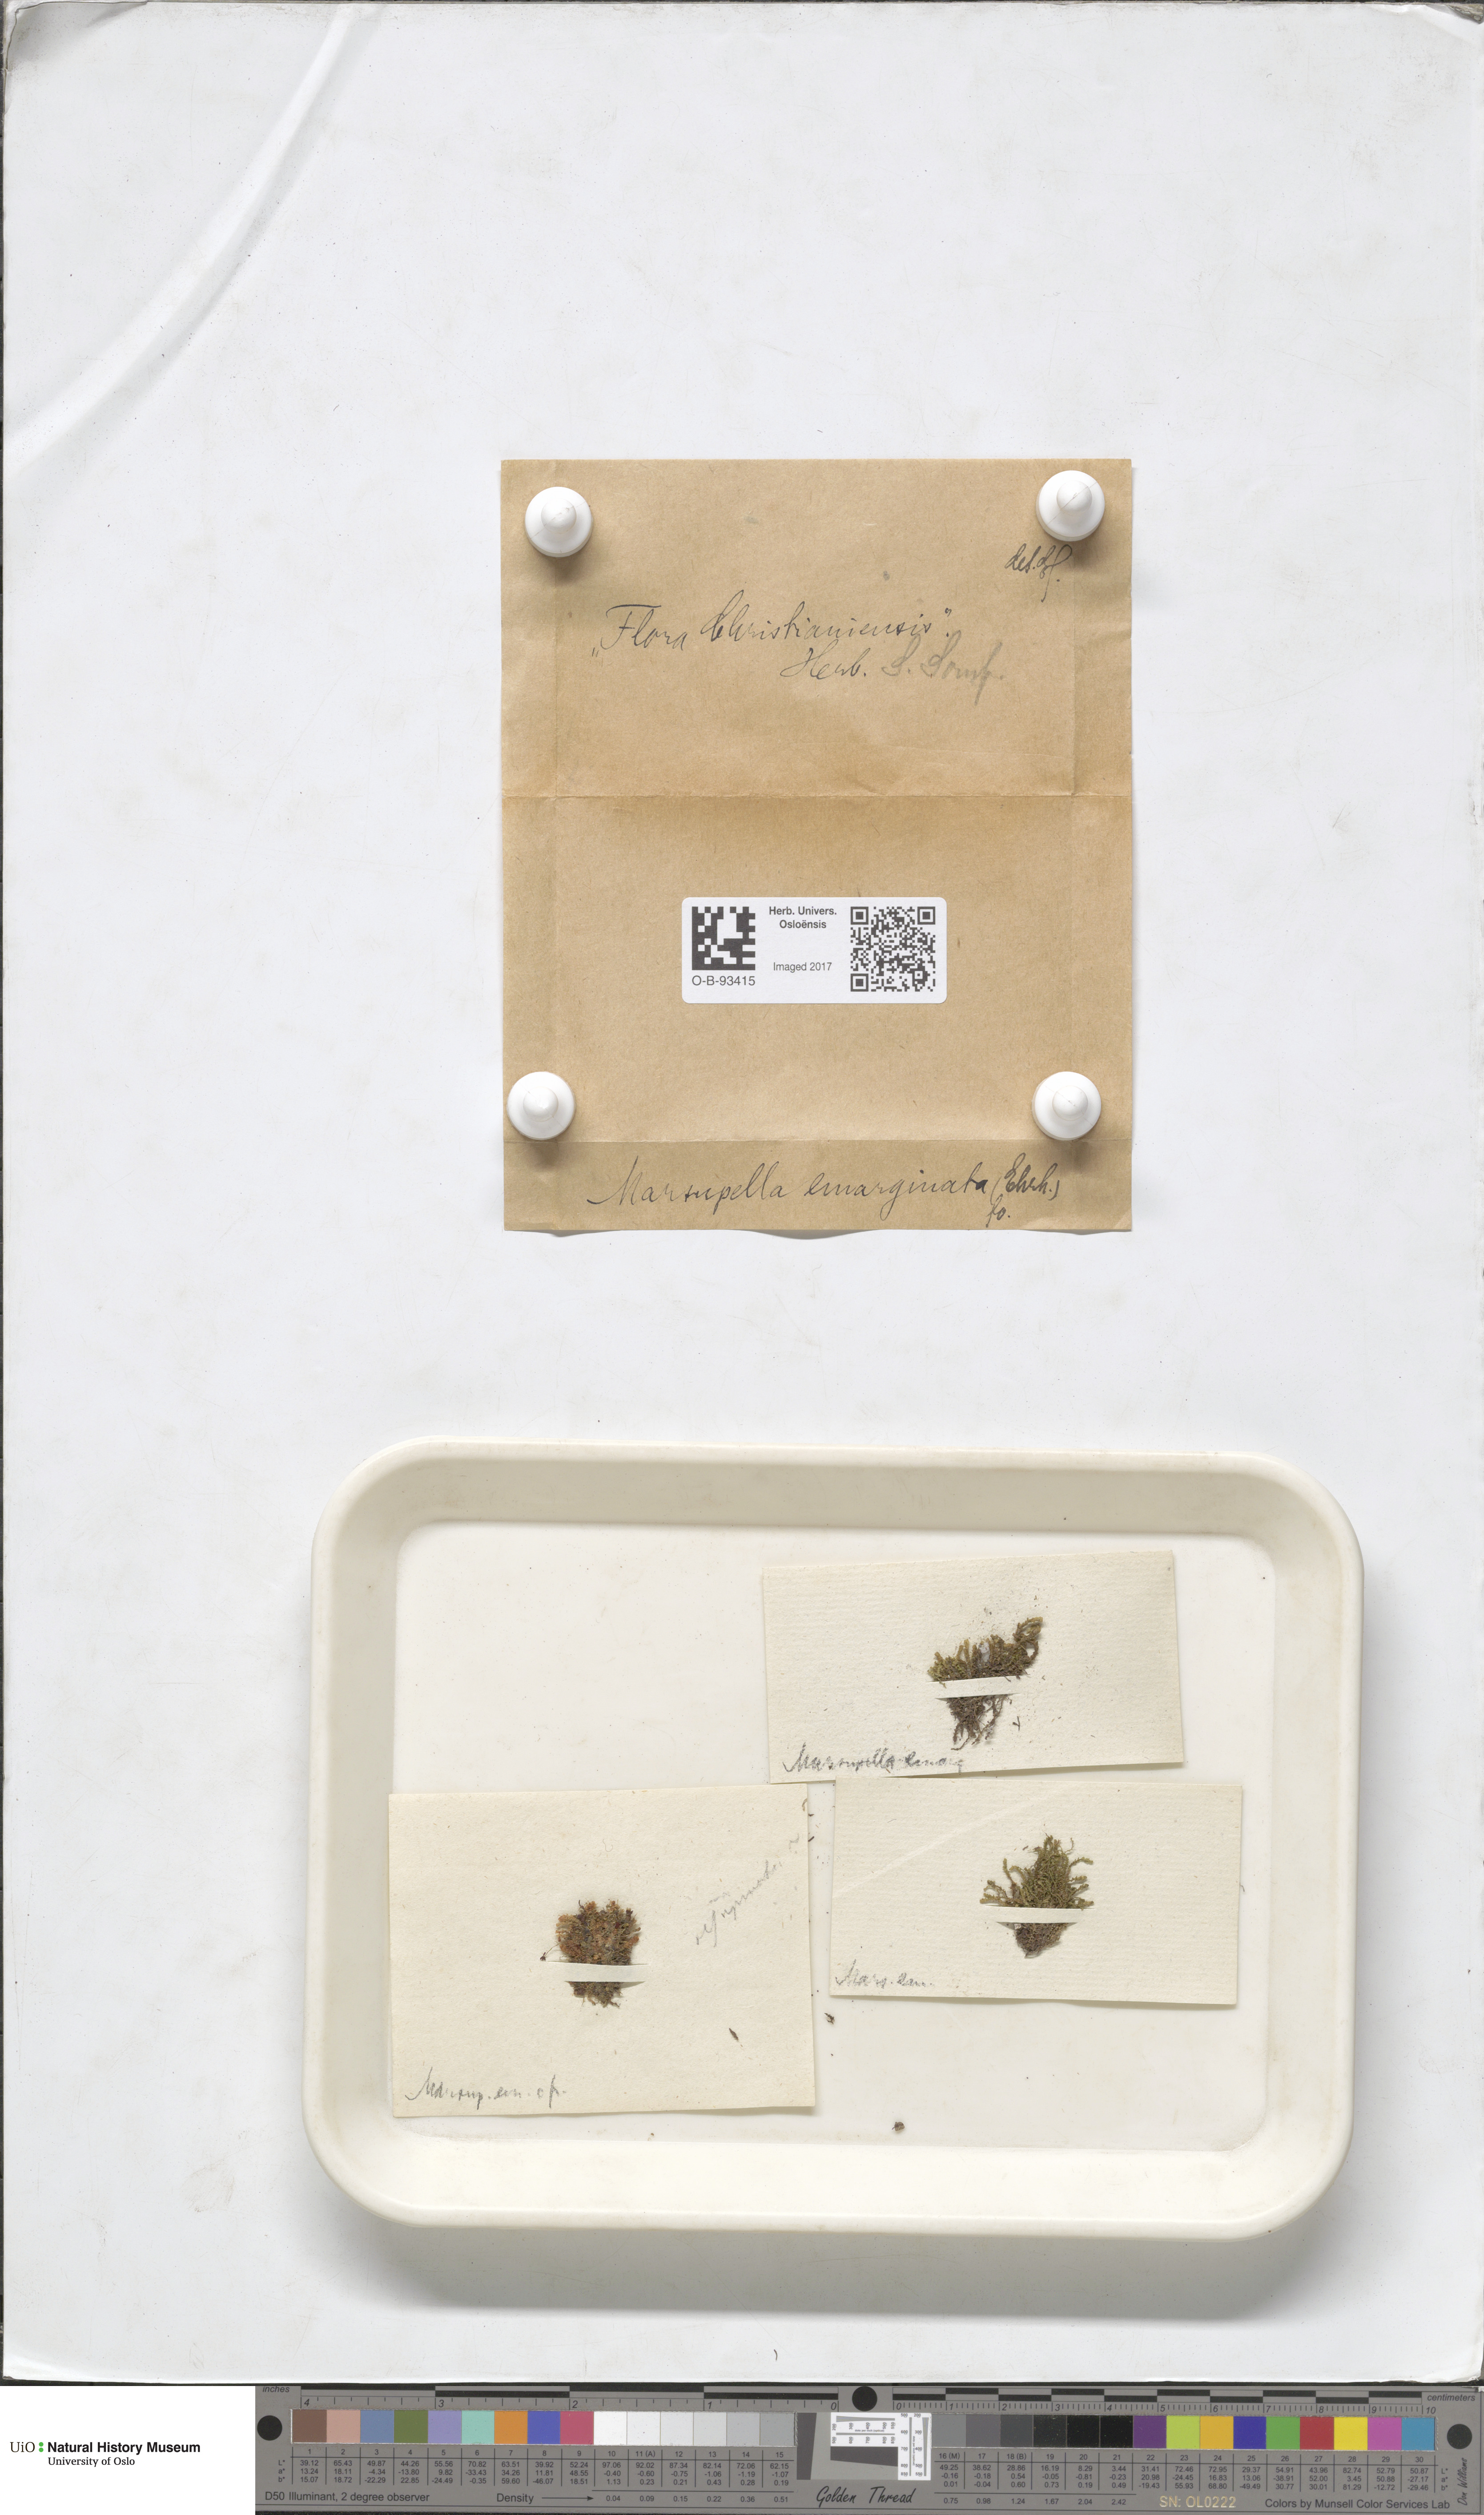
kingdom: Plantae
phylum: Marchantiophyta
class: Jungermanniopsida
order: Jungermanniales
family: Gymnomitriaceae
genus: Gymnomitrion
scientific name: Gymnomitrion brevissimum
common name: Snow rustwort
